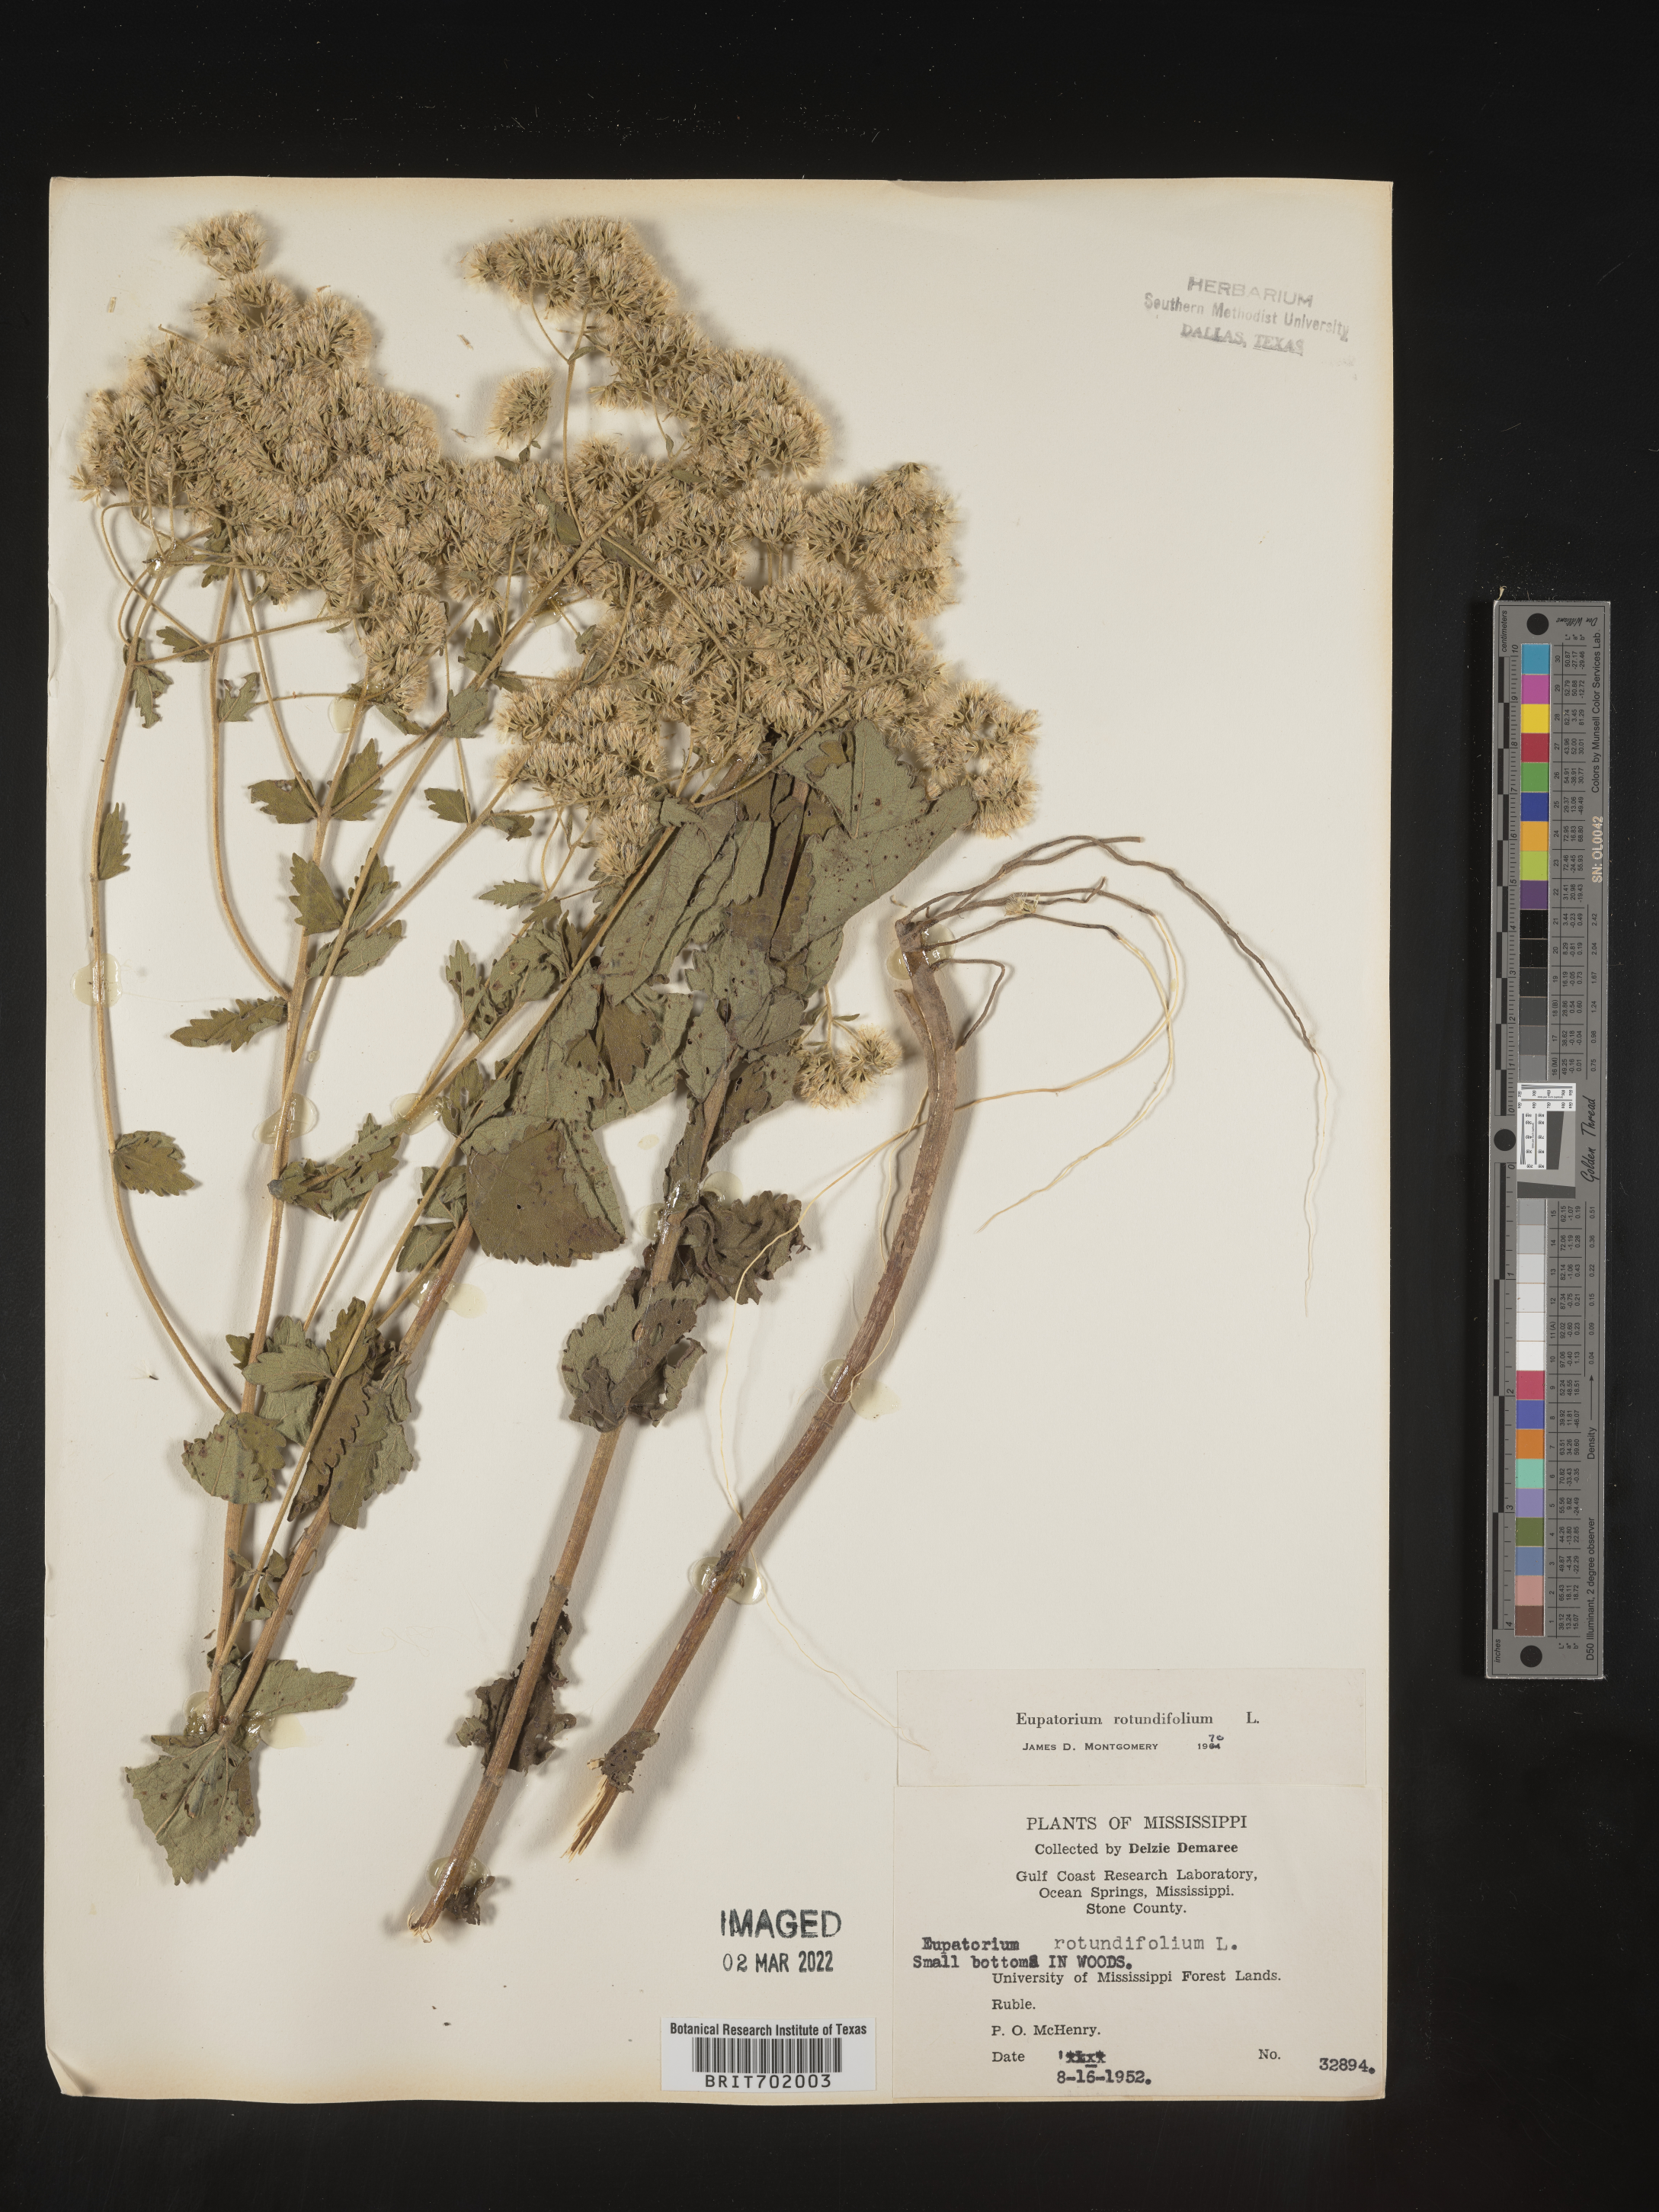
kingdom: Plantae
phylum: Tracheophyta
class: Magnoliopsida
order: Asterales
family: Asteraceae
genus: Eupatorium
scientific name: Eupatorium rotundifolium
